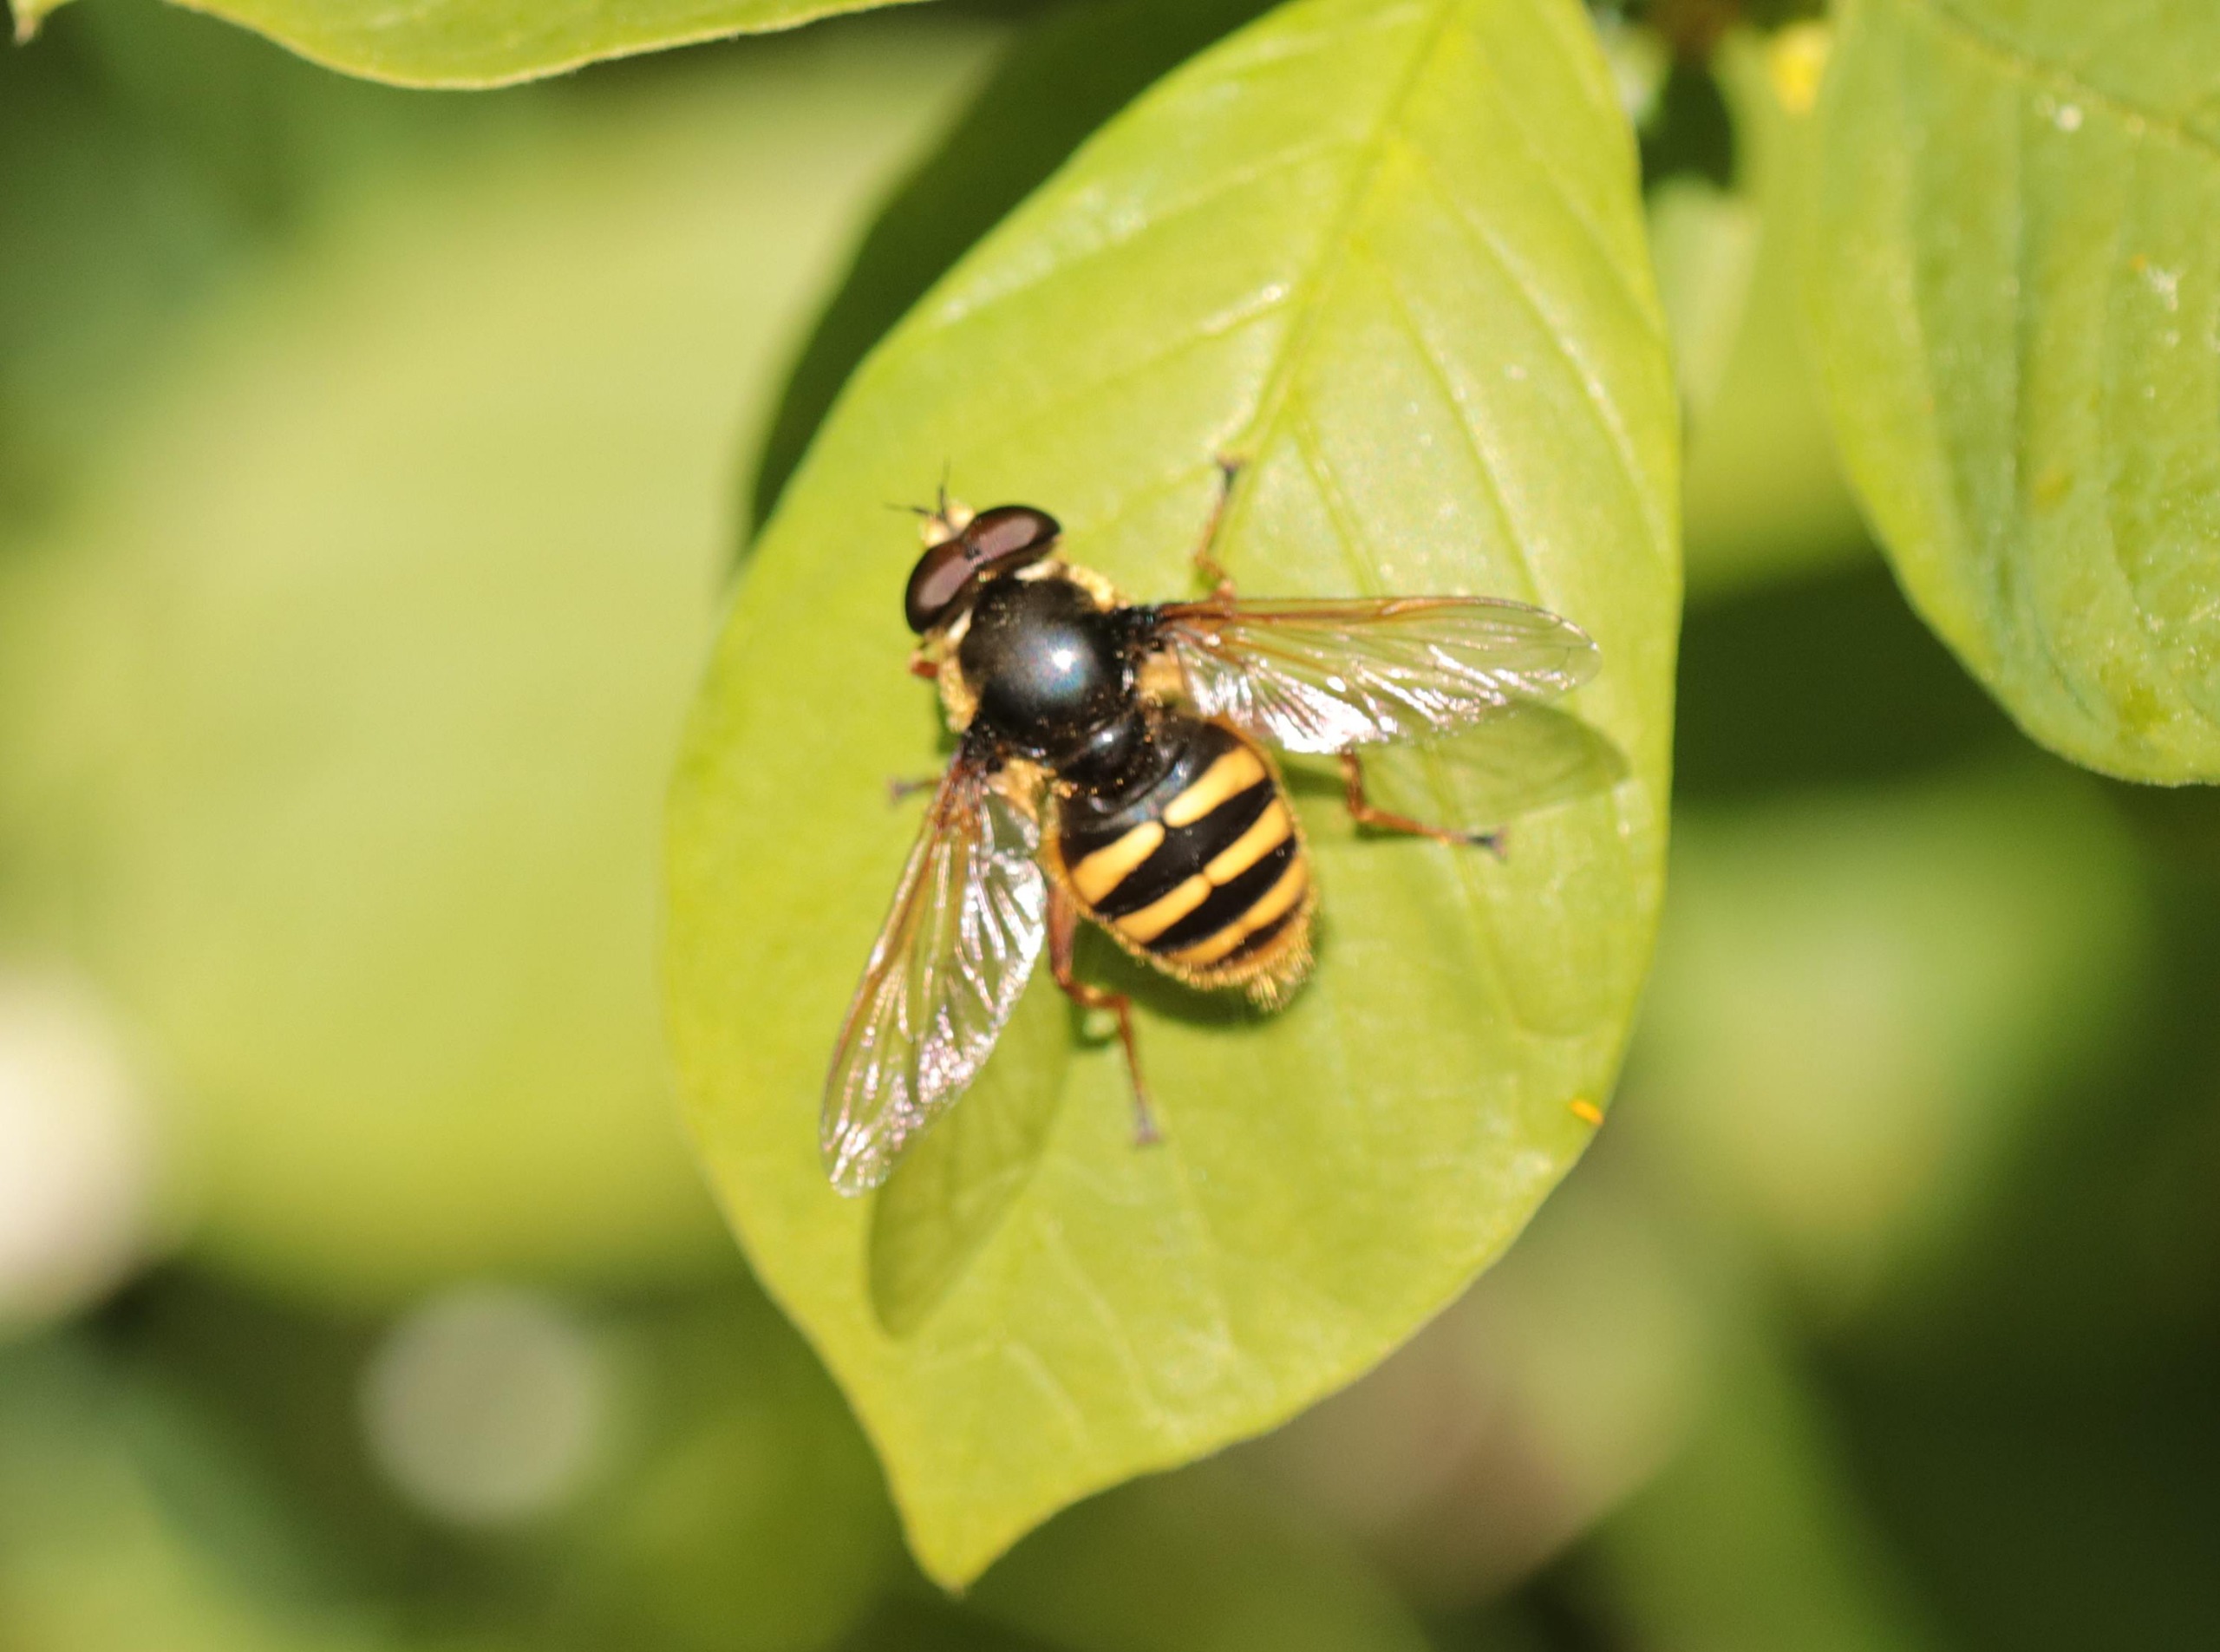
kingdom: Animalia
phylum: Arthropoda
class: Insecta
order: Diptera
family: Syrphidae
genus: Sericomyia
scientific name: Sericomyia silentis
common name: Tørve-silkesvirreflue
